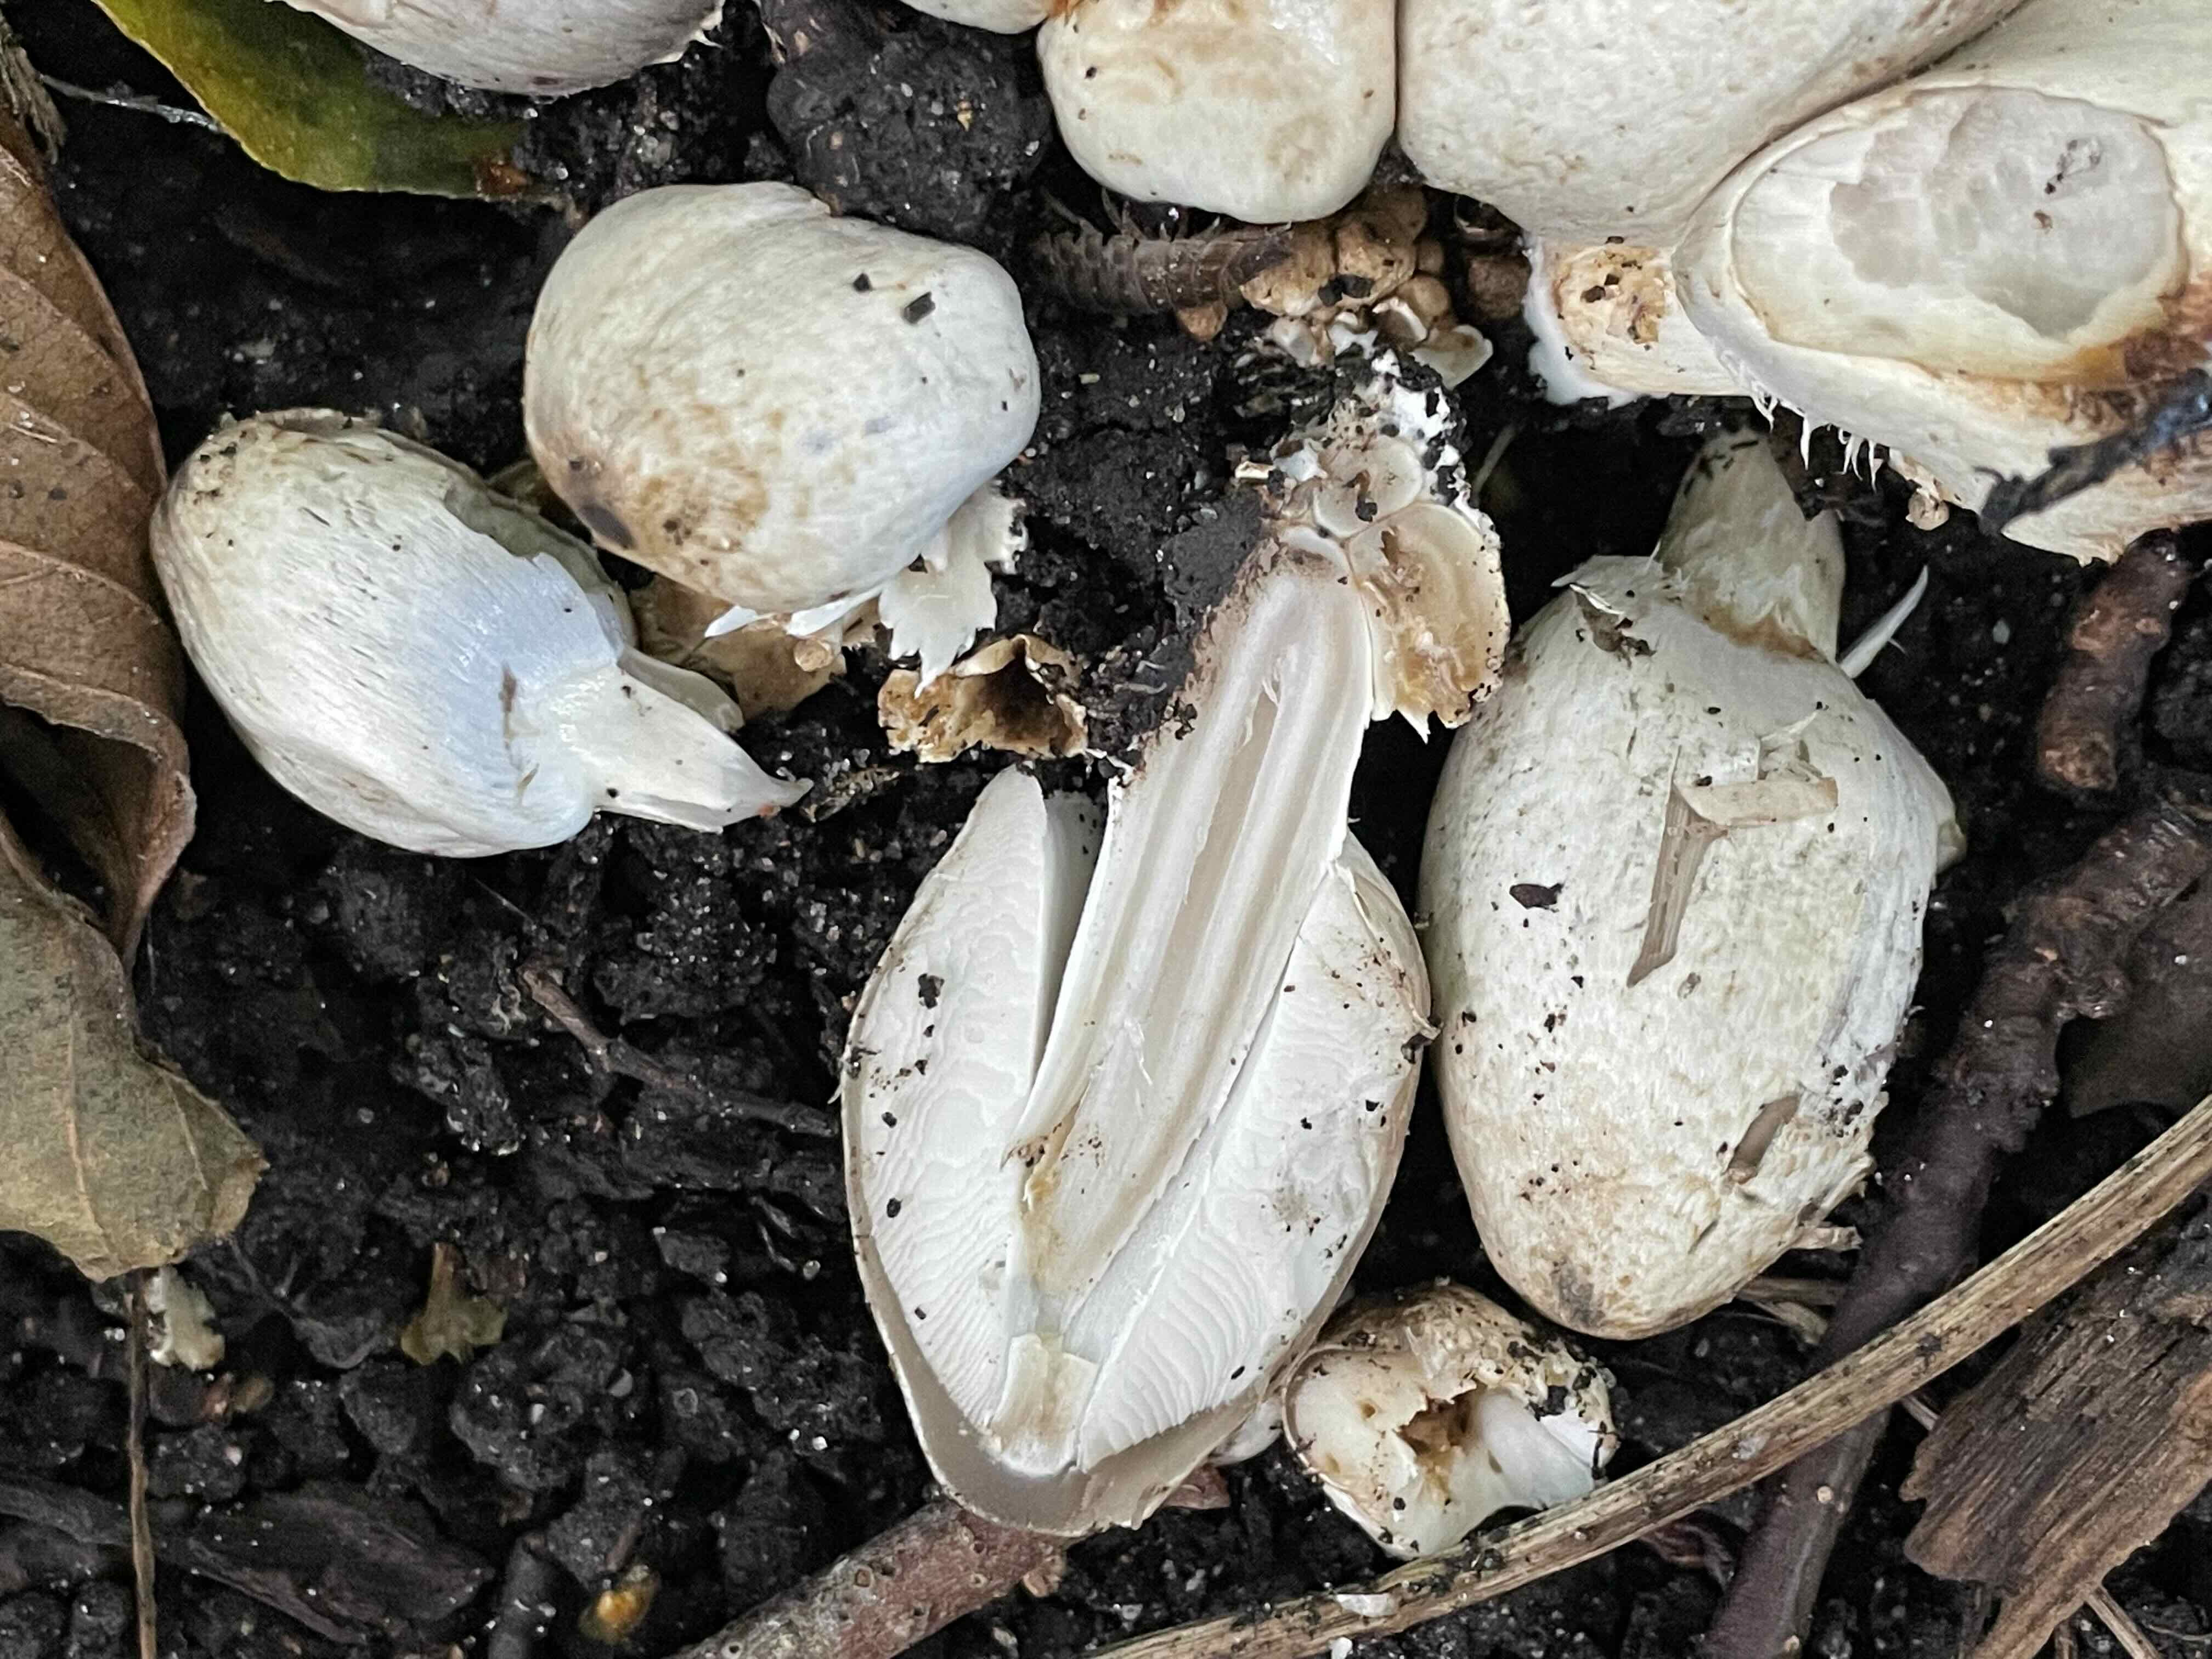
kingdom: Fungi
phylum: Basidiomycota
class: Agaricomycetes
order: Agaricales
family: Psathyrellaceae
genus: Coprinopsis
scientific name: Coprinopsis romagnesiana
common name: brunskællet blækhat
